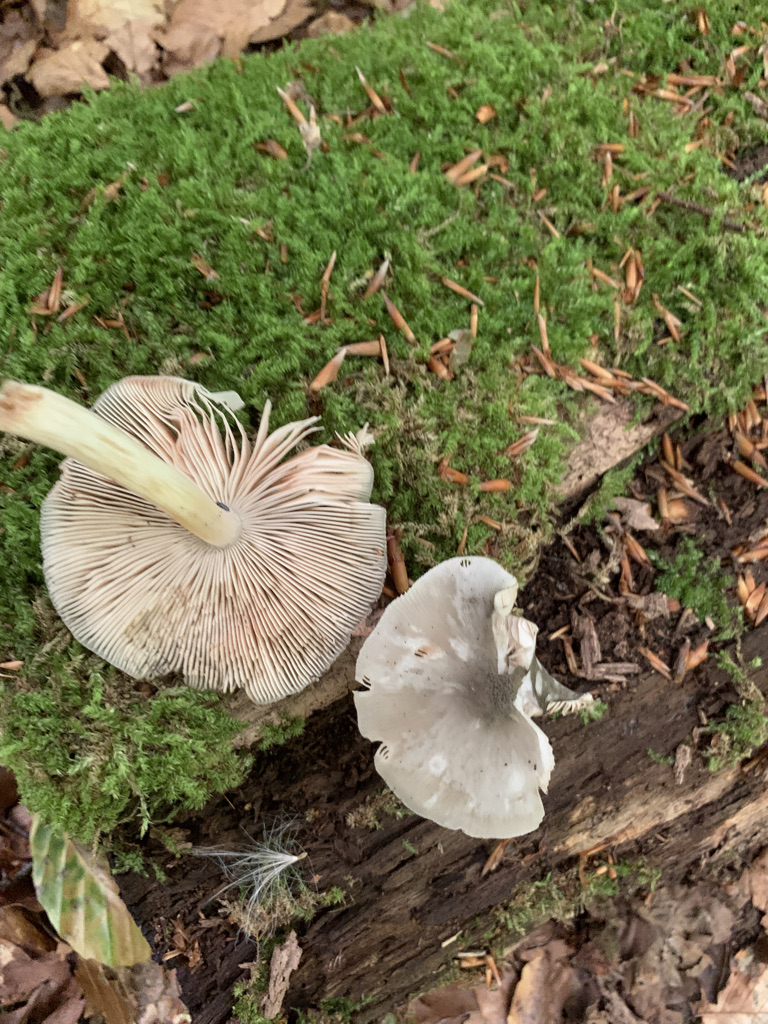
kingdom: Fungi
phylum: Basidiomycota
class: Agaricomycetes
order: Agaricales
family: Pluteaceae
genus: Pluteus
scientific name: Pluteus cervinus
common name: sodfarvet skærmhat
